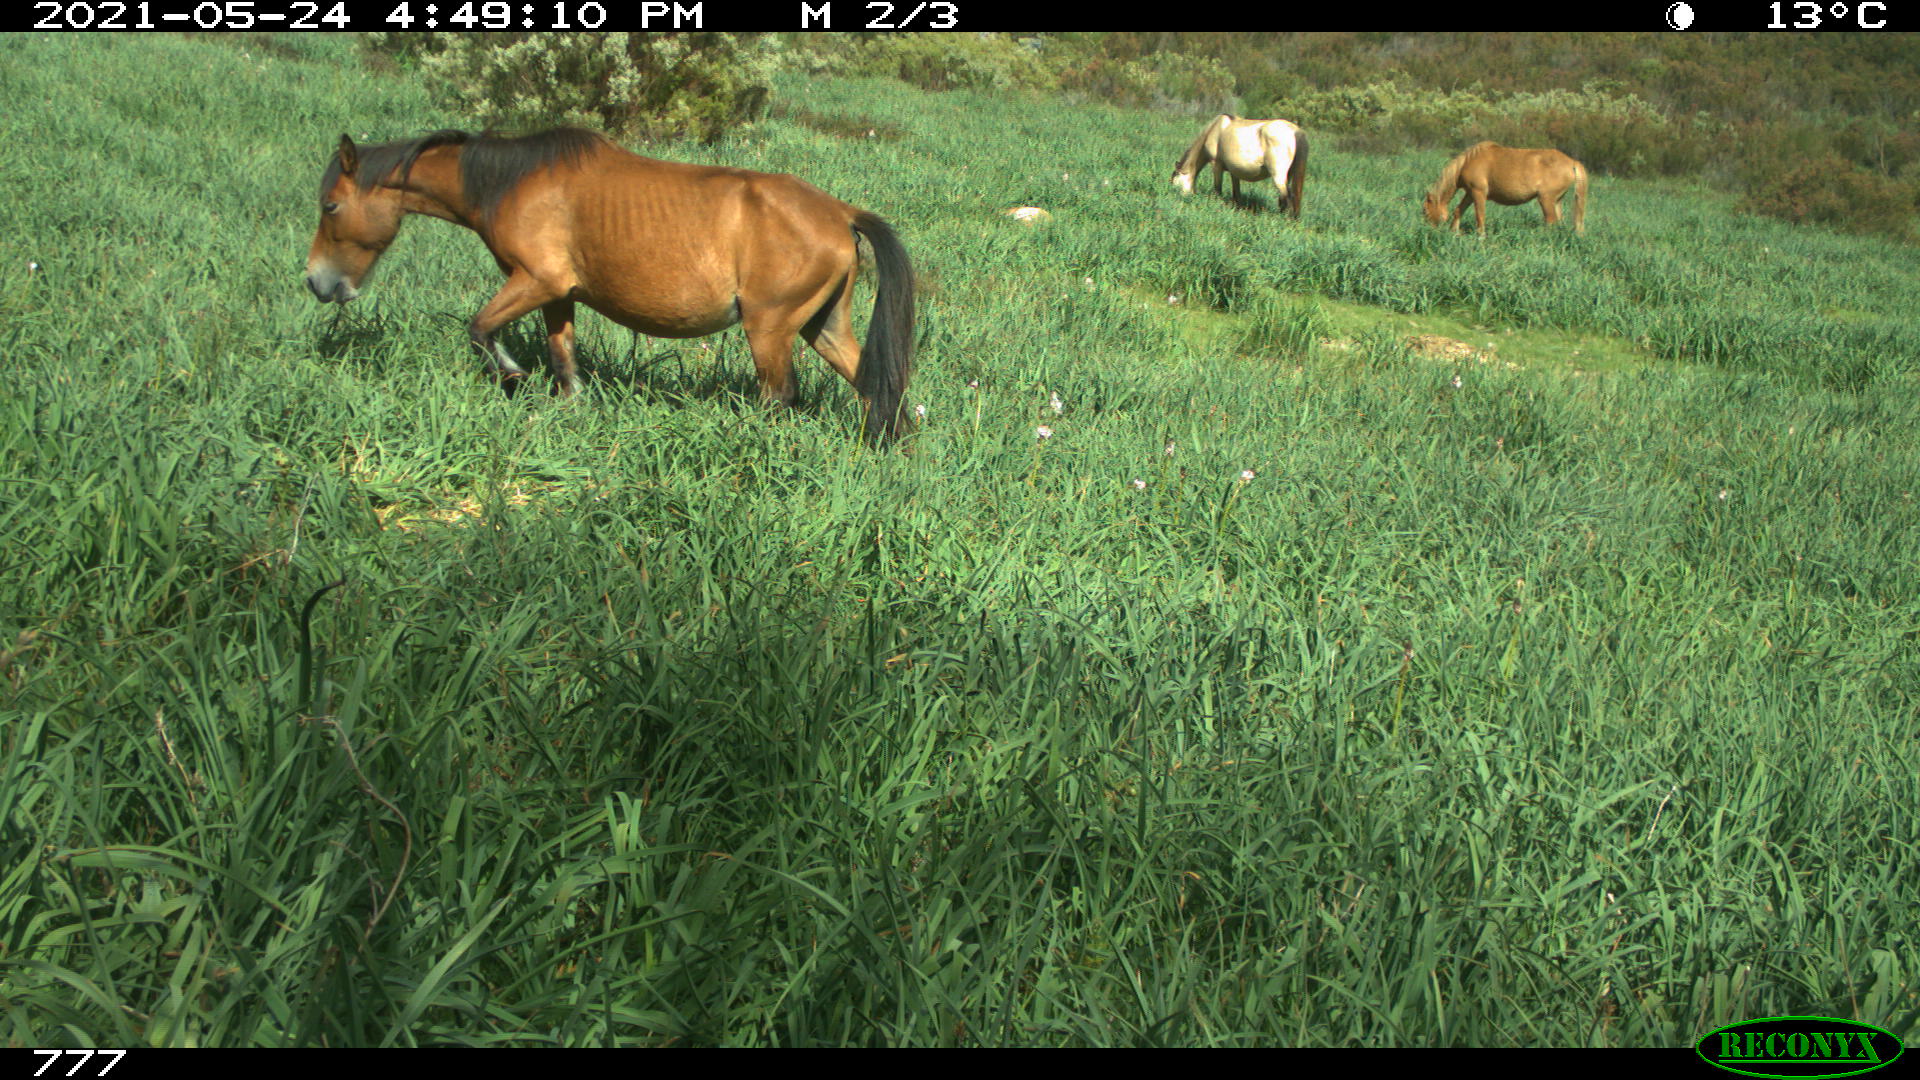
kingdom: Animalia
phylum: Chordata
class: Mammalia
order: Perissodactyla
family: Equidae
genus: Equus
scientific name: Equus caballus
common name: Horse
